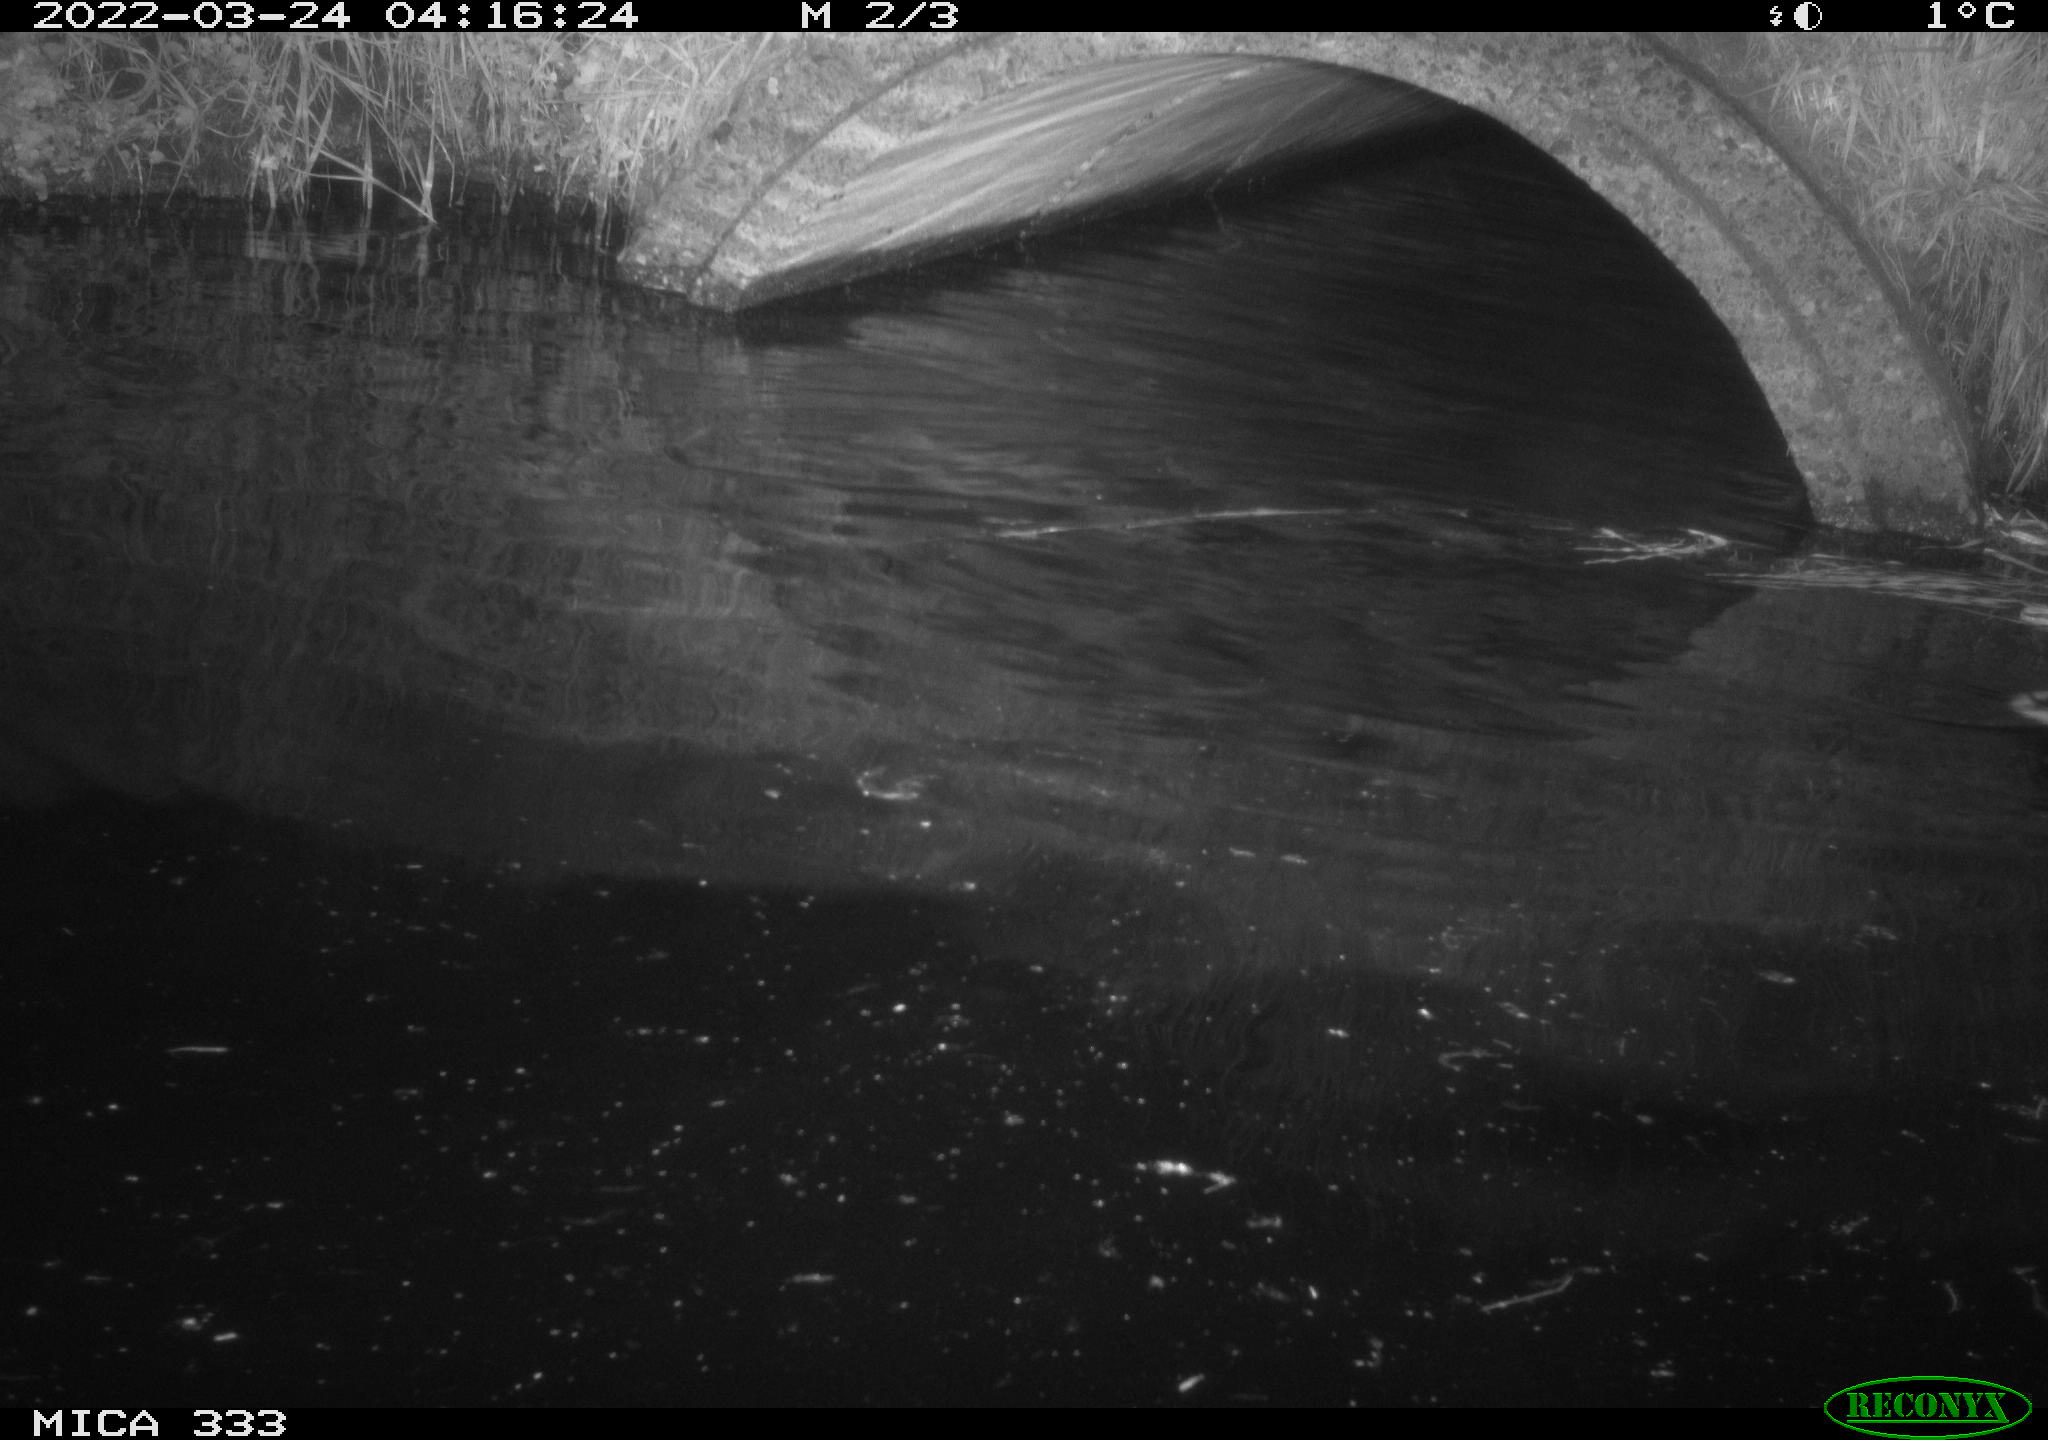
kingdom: Animalia
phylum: Chordata
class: Aves
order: Anseriformes
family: Anatidae
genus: Anas
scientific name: Anas platyrhynchos
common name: Mallard
